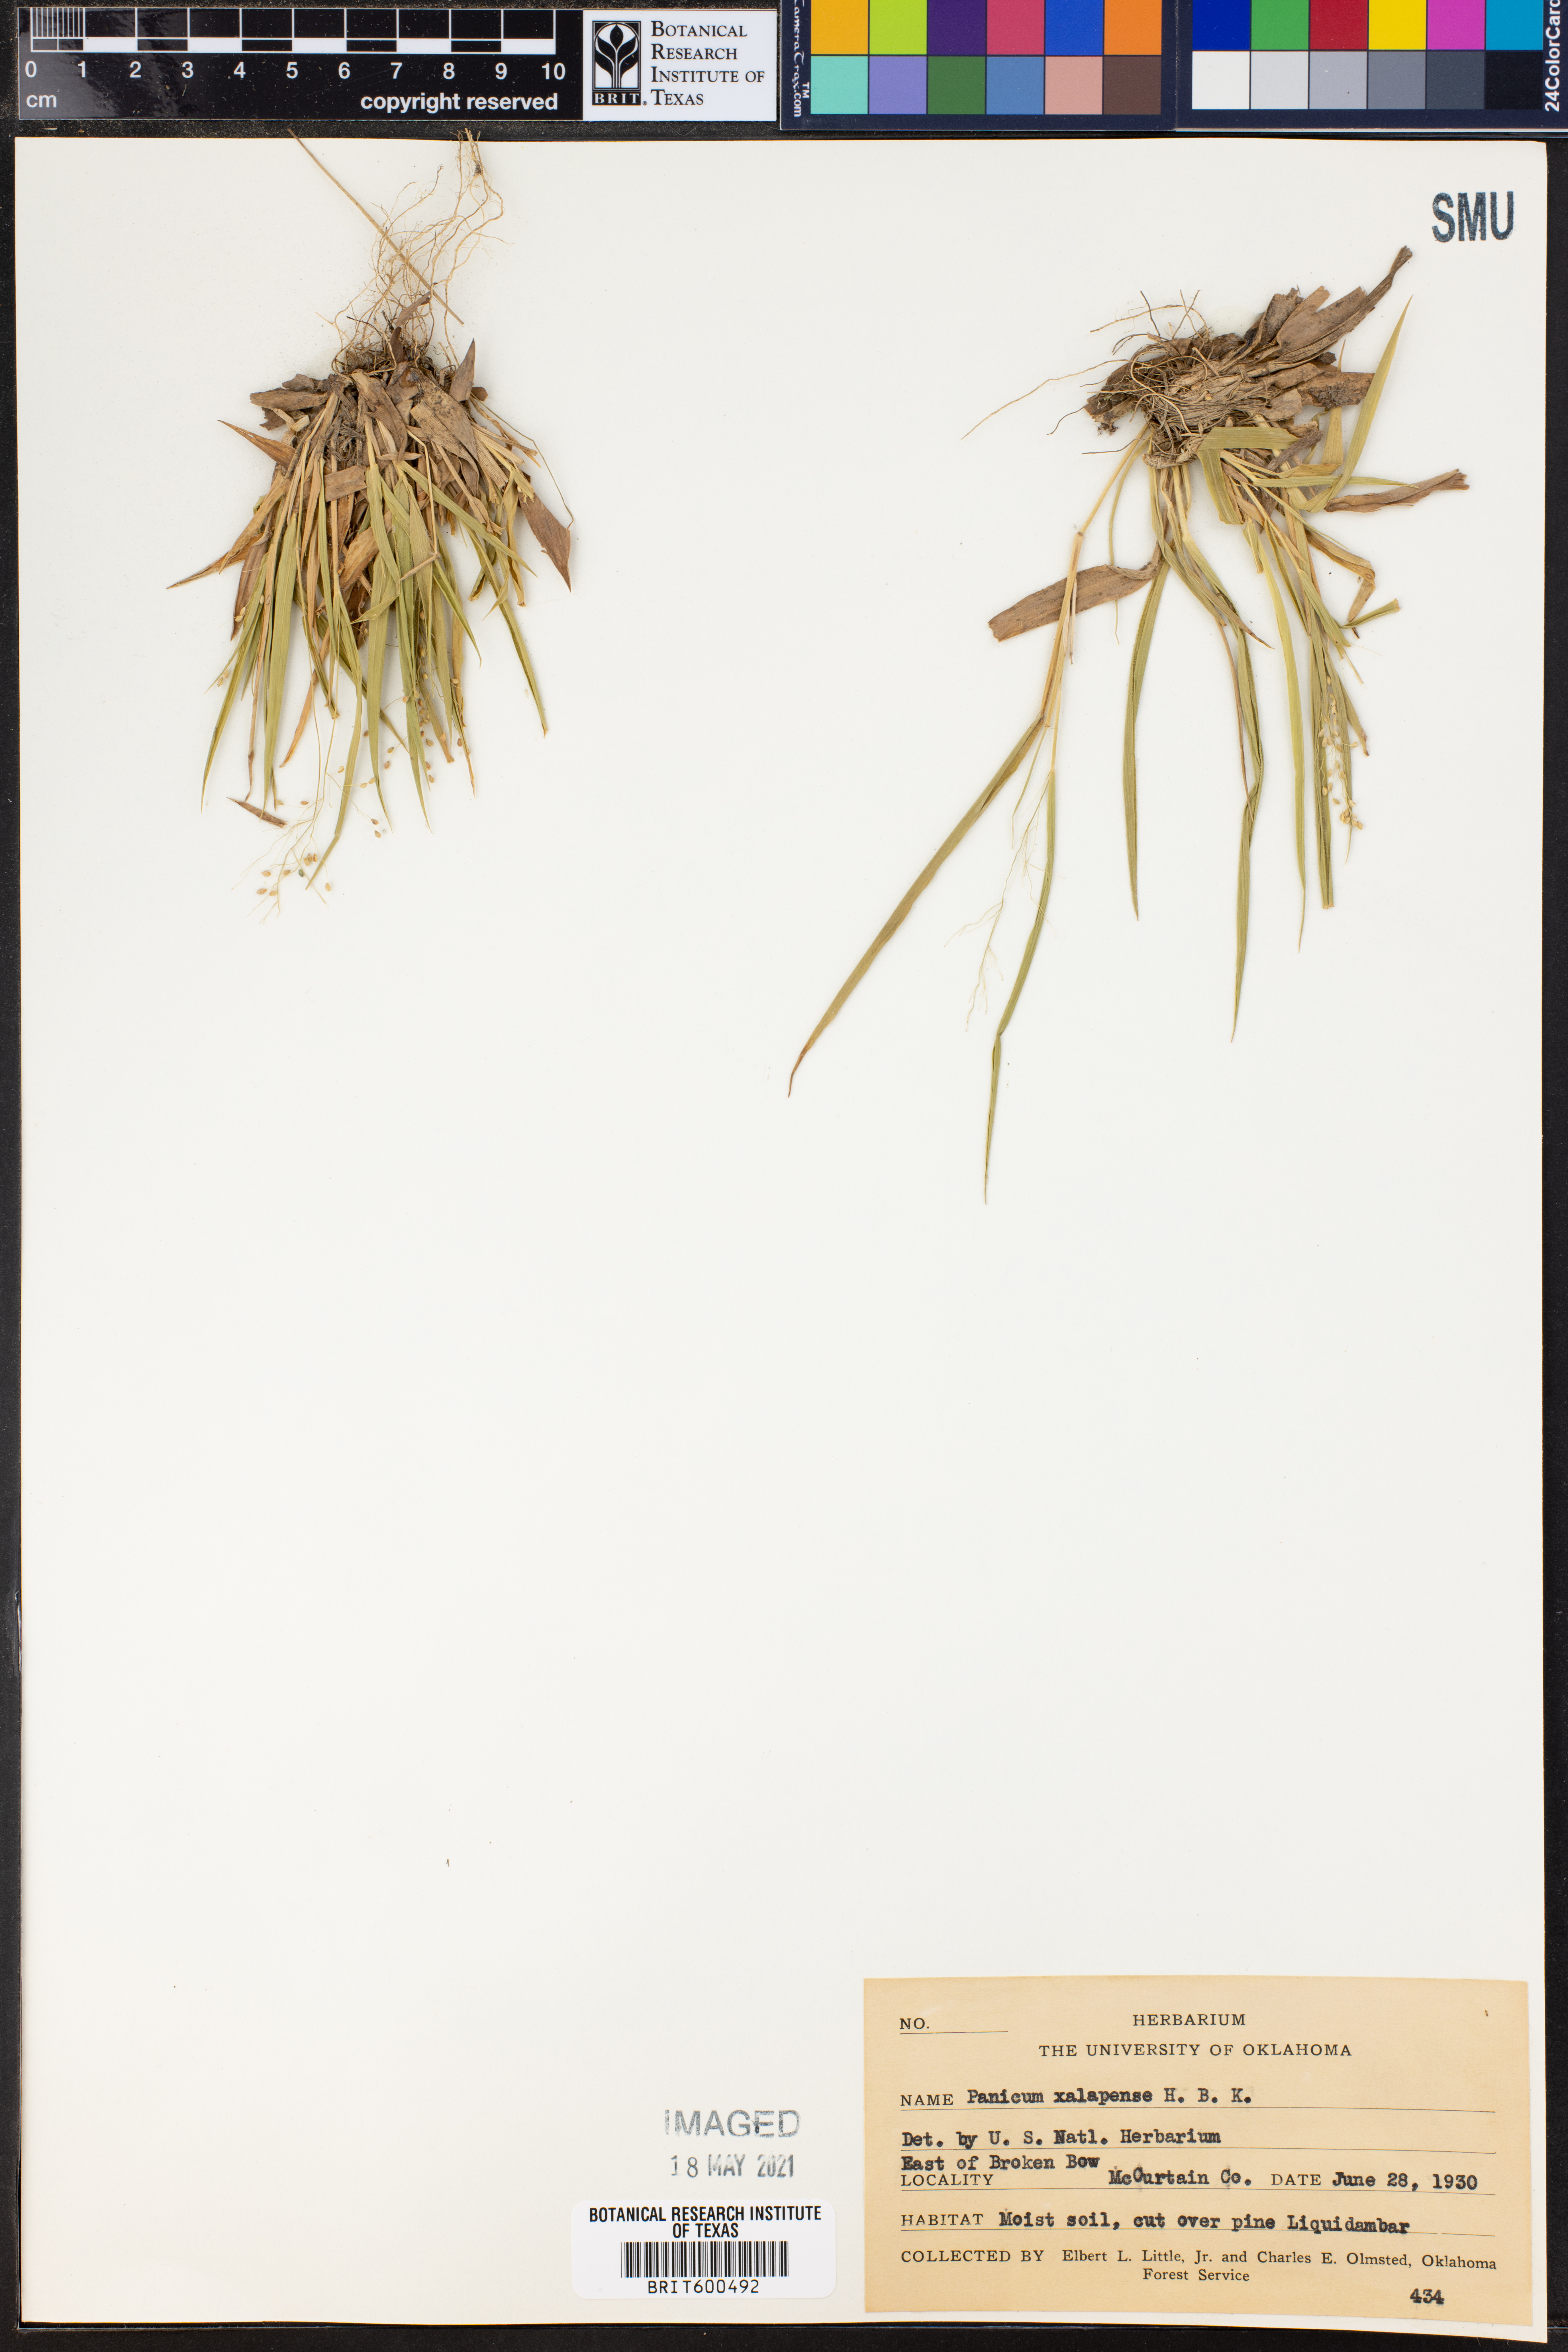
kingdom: Plantae
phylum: Tracheophyta
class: Liliopsida
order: Poales
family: Poaceae
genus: Dichanthelium
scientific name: Dichanthelium xalapense
